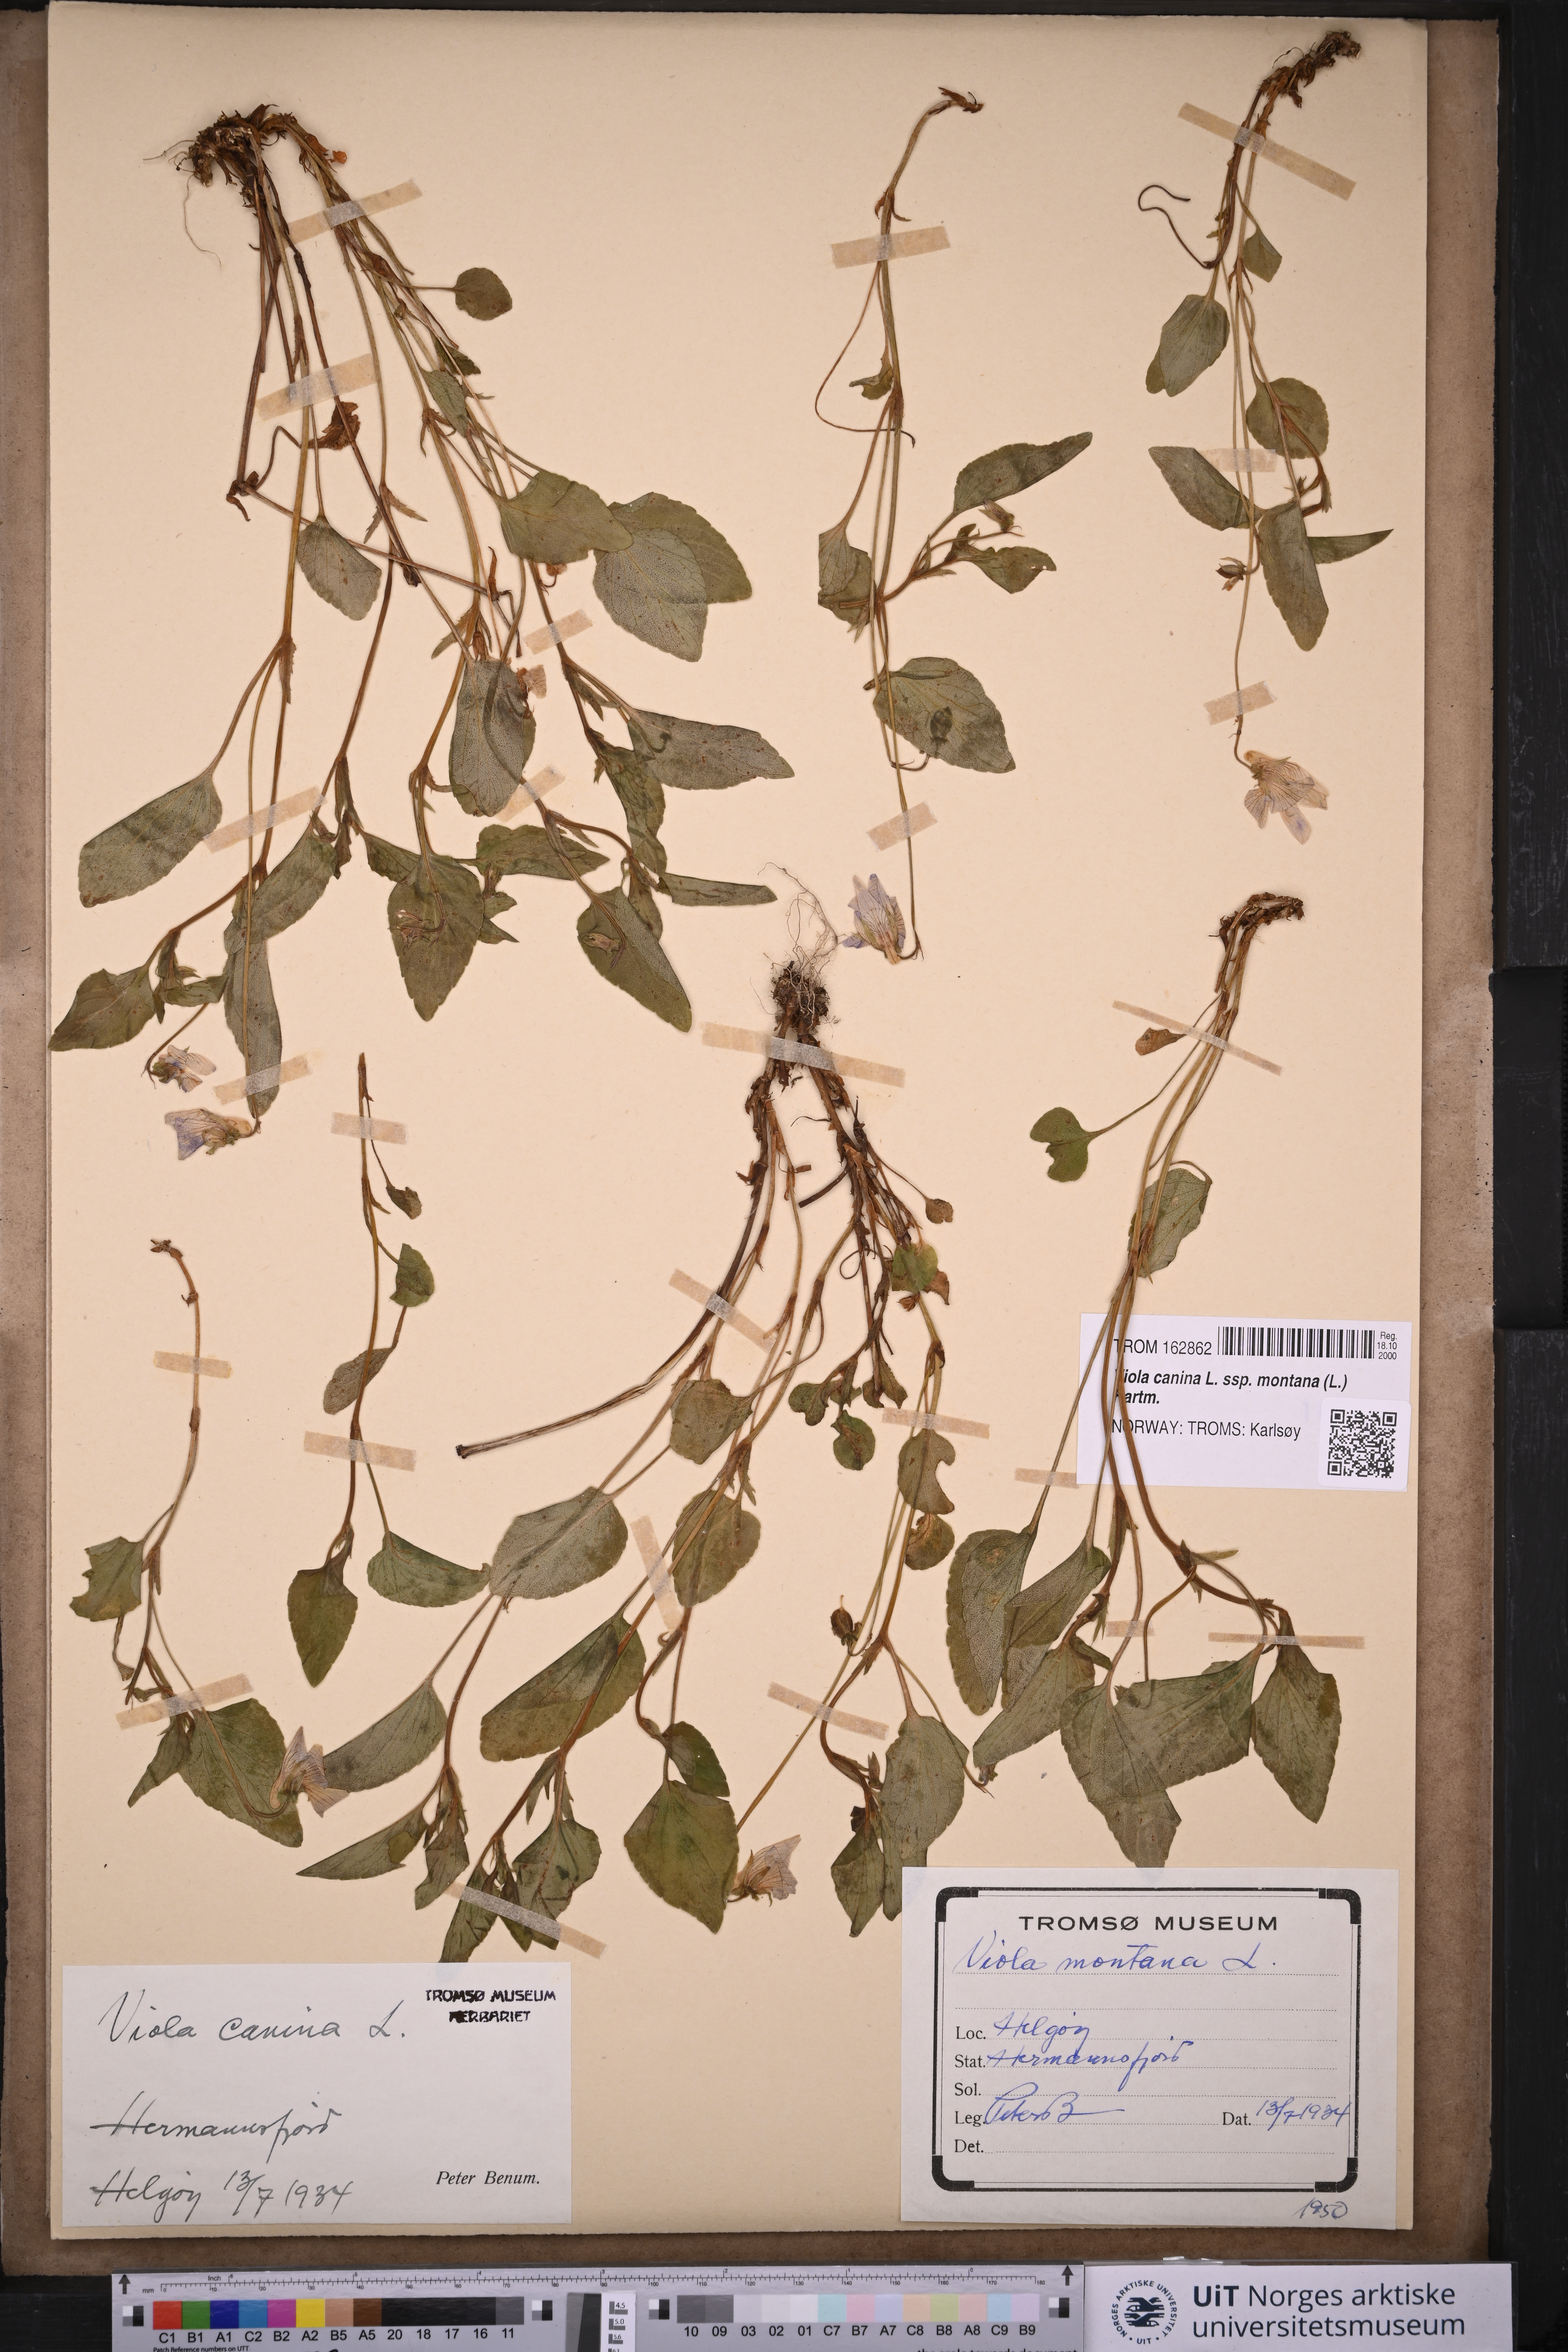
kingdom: Plantae
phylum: Tracheophyta
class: Magnoliopsida
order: Malpighiales
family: Violaceae
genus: Viola
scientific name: Viola ruppii
